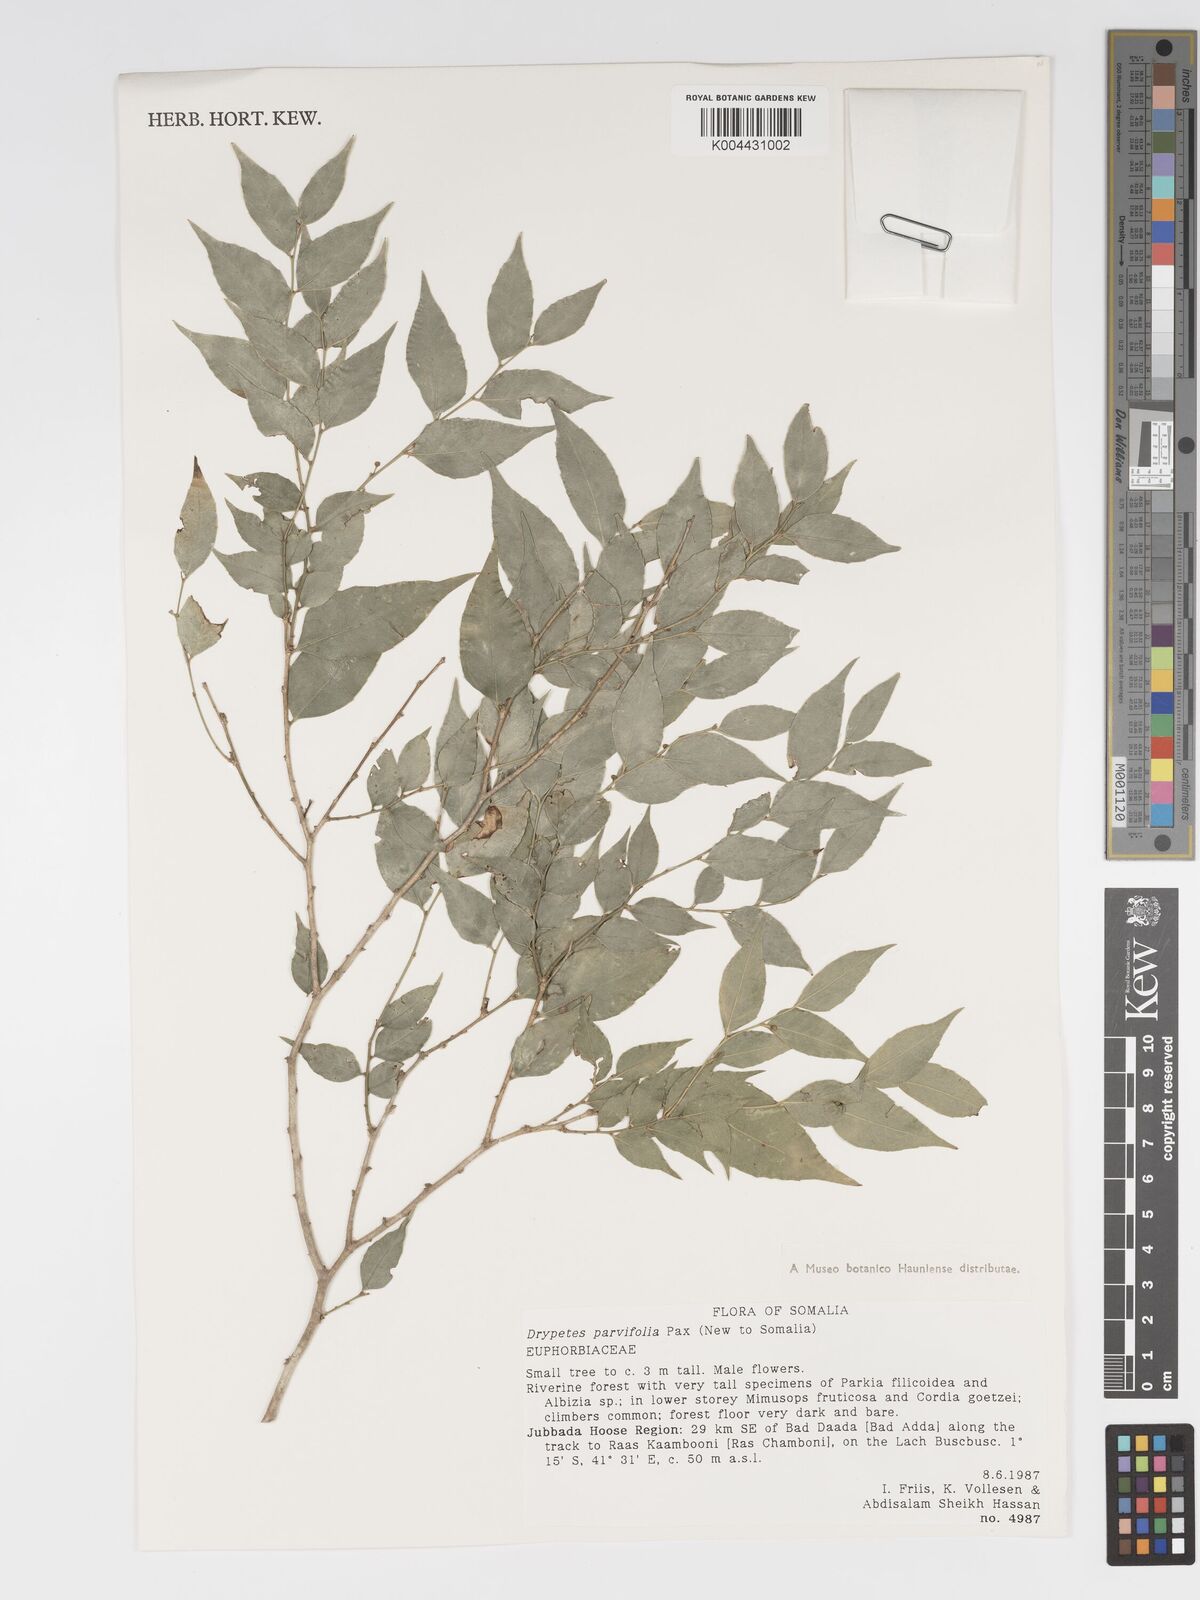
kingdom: Plantae
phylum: Tracheophyta
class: Magnoliopsida
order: Malpighiales
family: Putranjivaceae
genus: Drypetes
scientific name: Drypetes parvifolia
